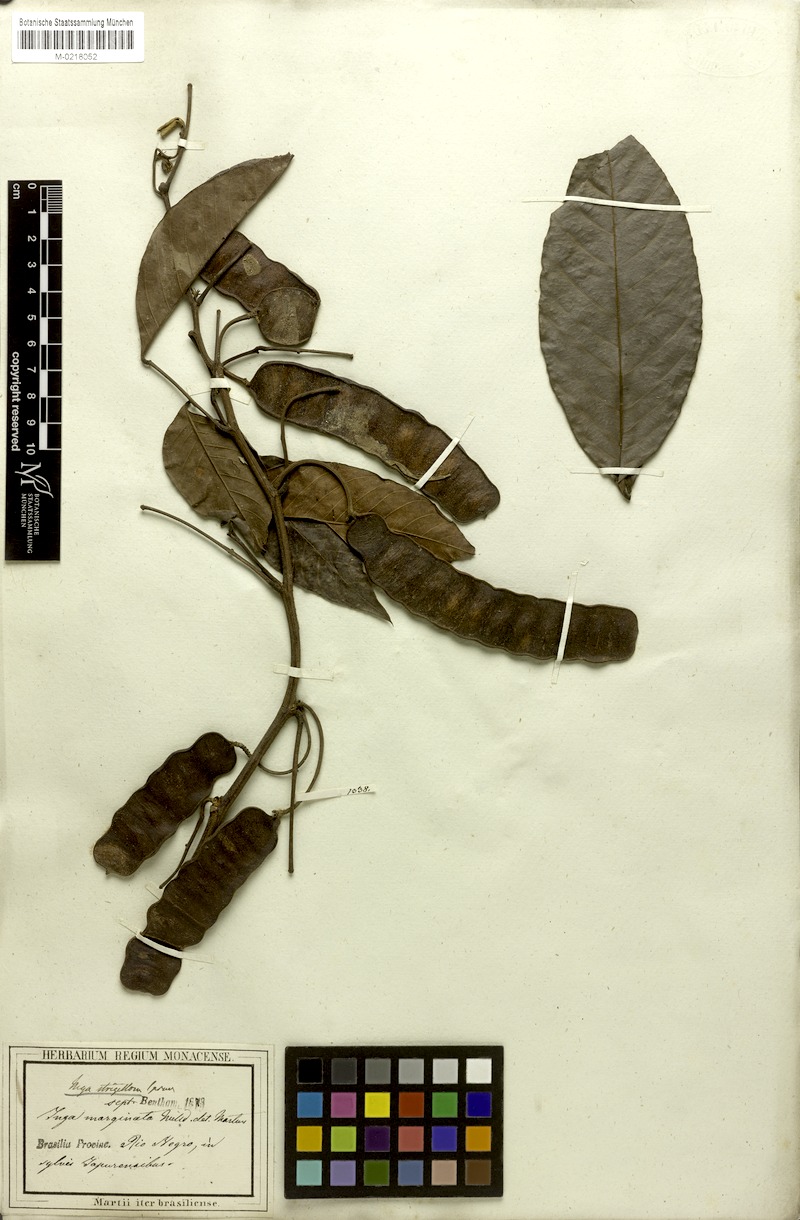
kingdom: Plantae
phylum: Tracheophyta
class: Magnoliopsida
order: Fabales
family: Fabaceae
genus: Inga
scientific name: Inga punctata
